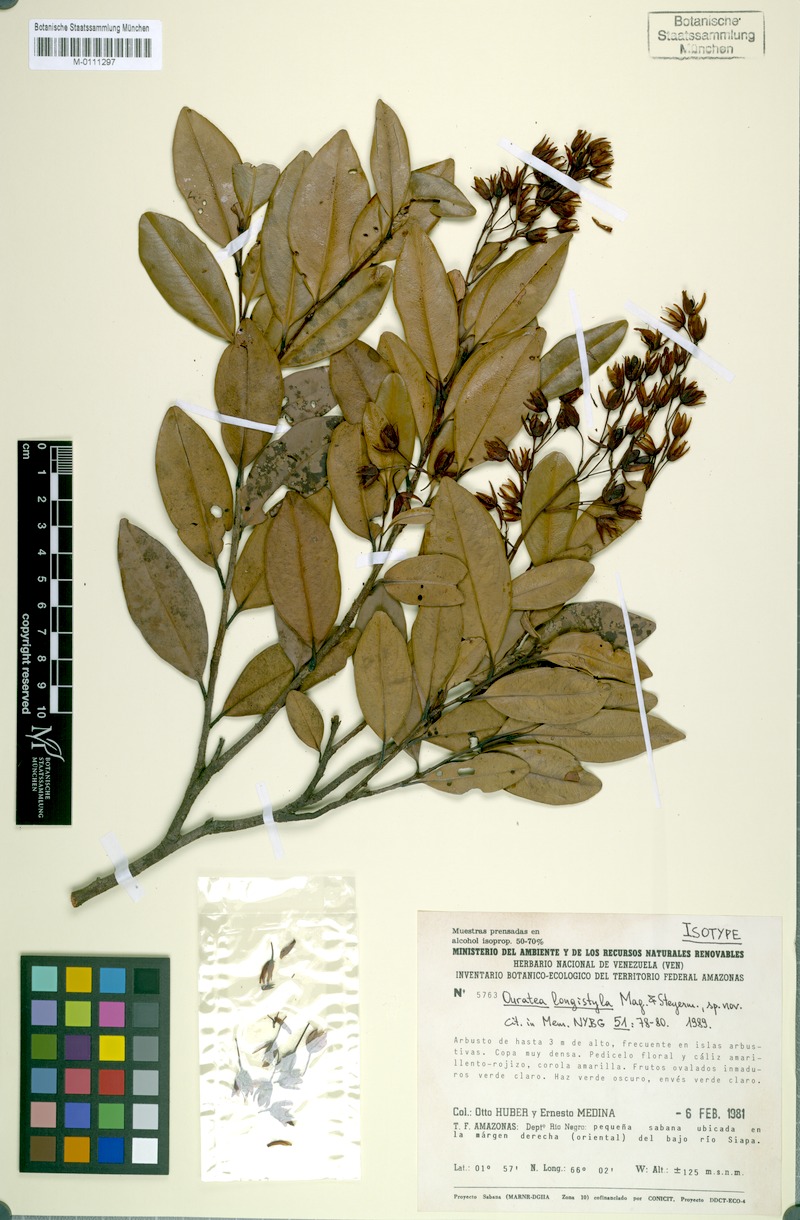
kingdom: Plantae
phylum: Tracheophyta
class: Magnoliopsida
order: Malpighiales
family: Ochnaceae
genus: Ouratea
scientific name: Ouratea longistyla
